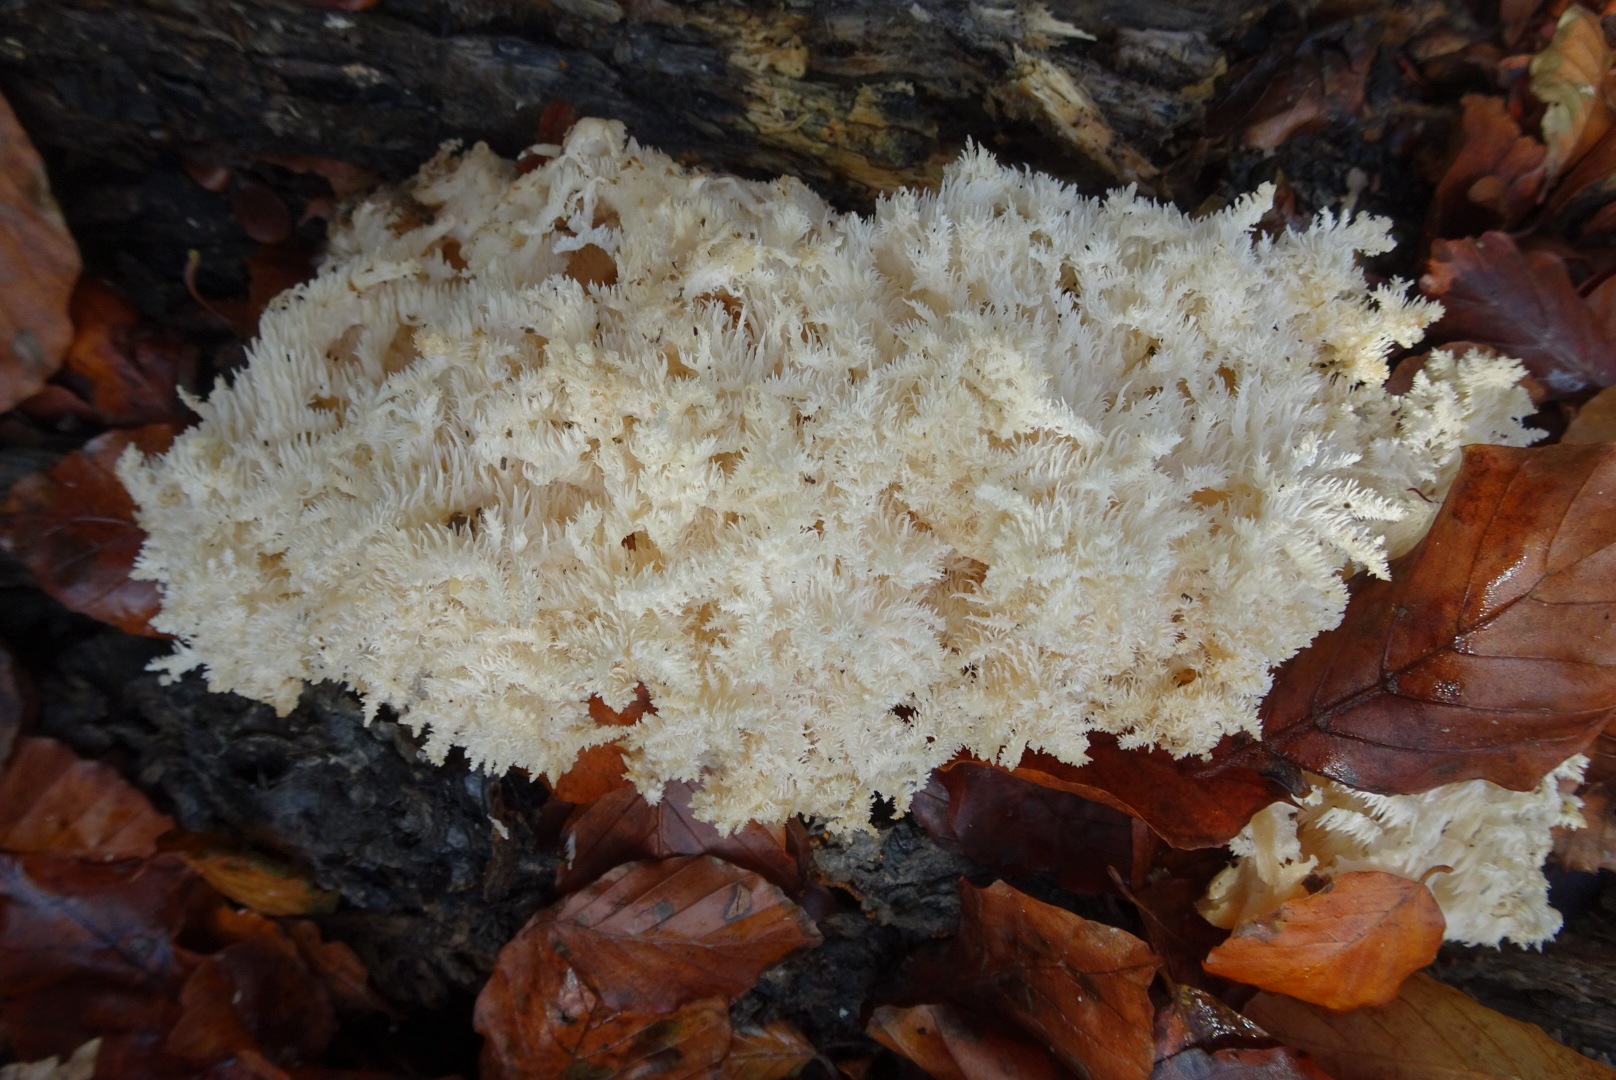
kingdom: Fungi
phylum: Basidiomycota
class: Agaricomycetes
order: Russulales
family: Hericiaceae
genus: Hericium
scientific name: Hericium coralloides
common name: koralpigsvamp
